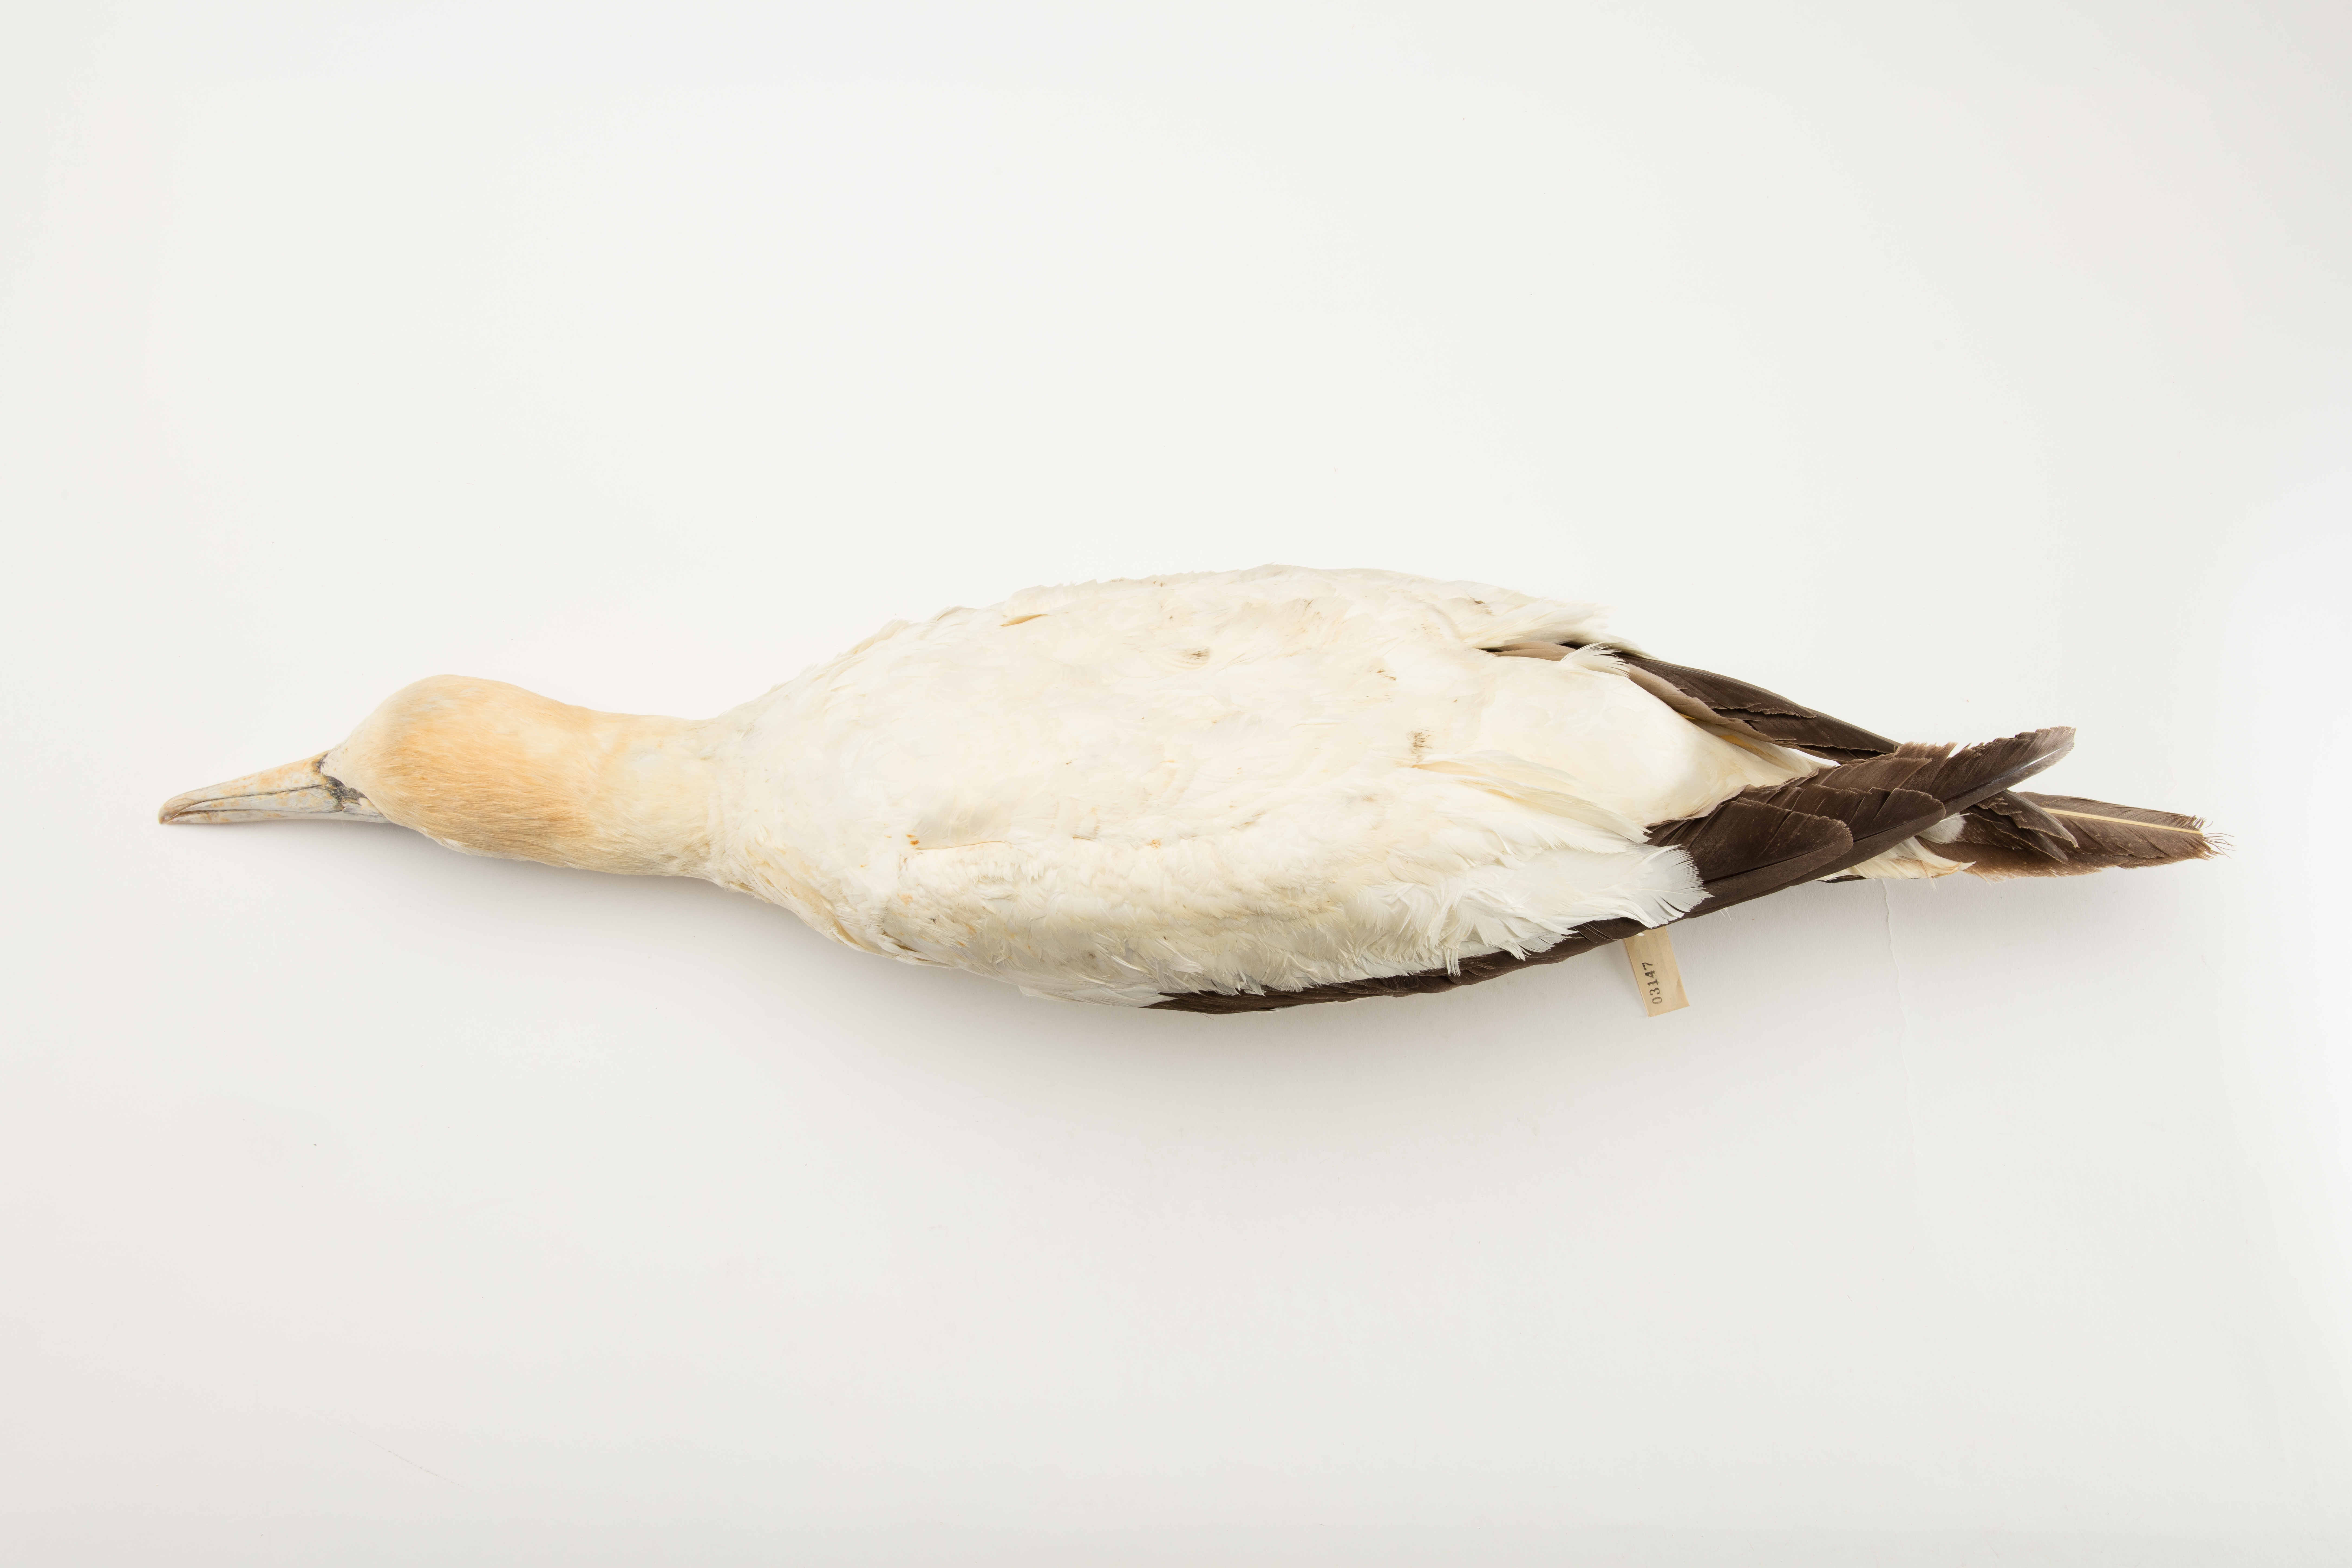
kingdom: Animalia
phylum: Chordata
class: Aves
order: Suliformes
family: Sulidae
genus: Morus
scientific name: Morus serrator
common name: Australasian gannet
